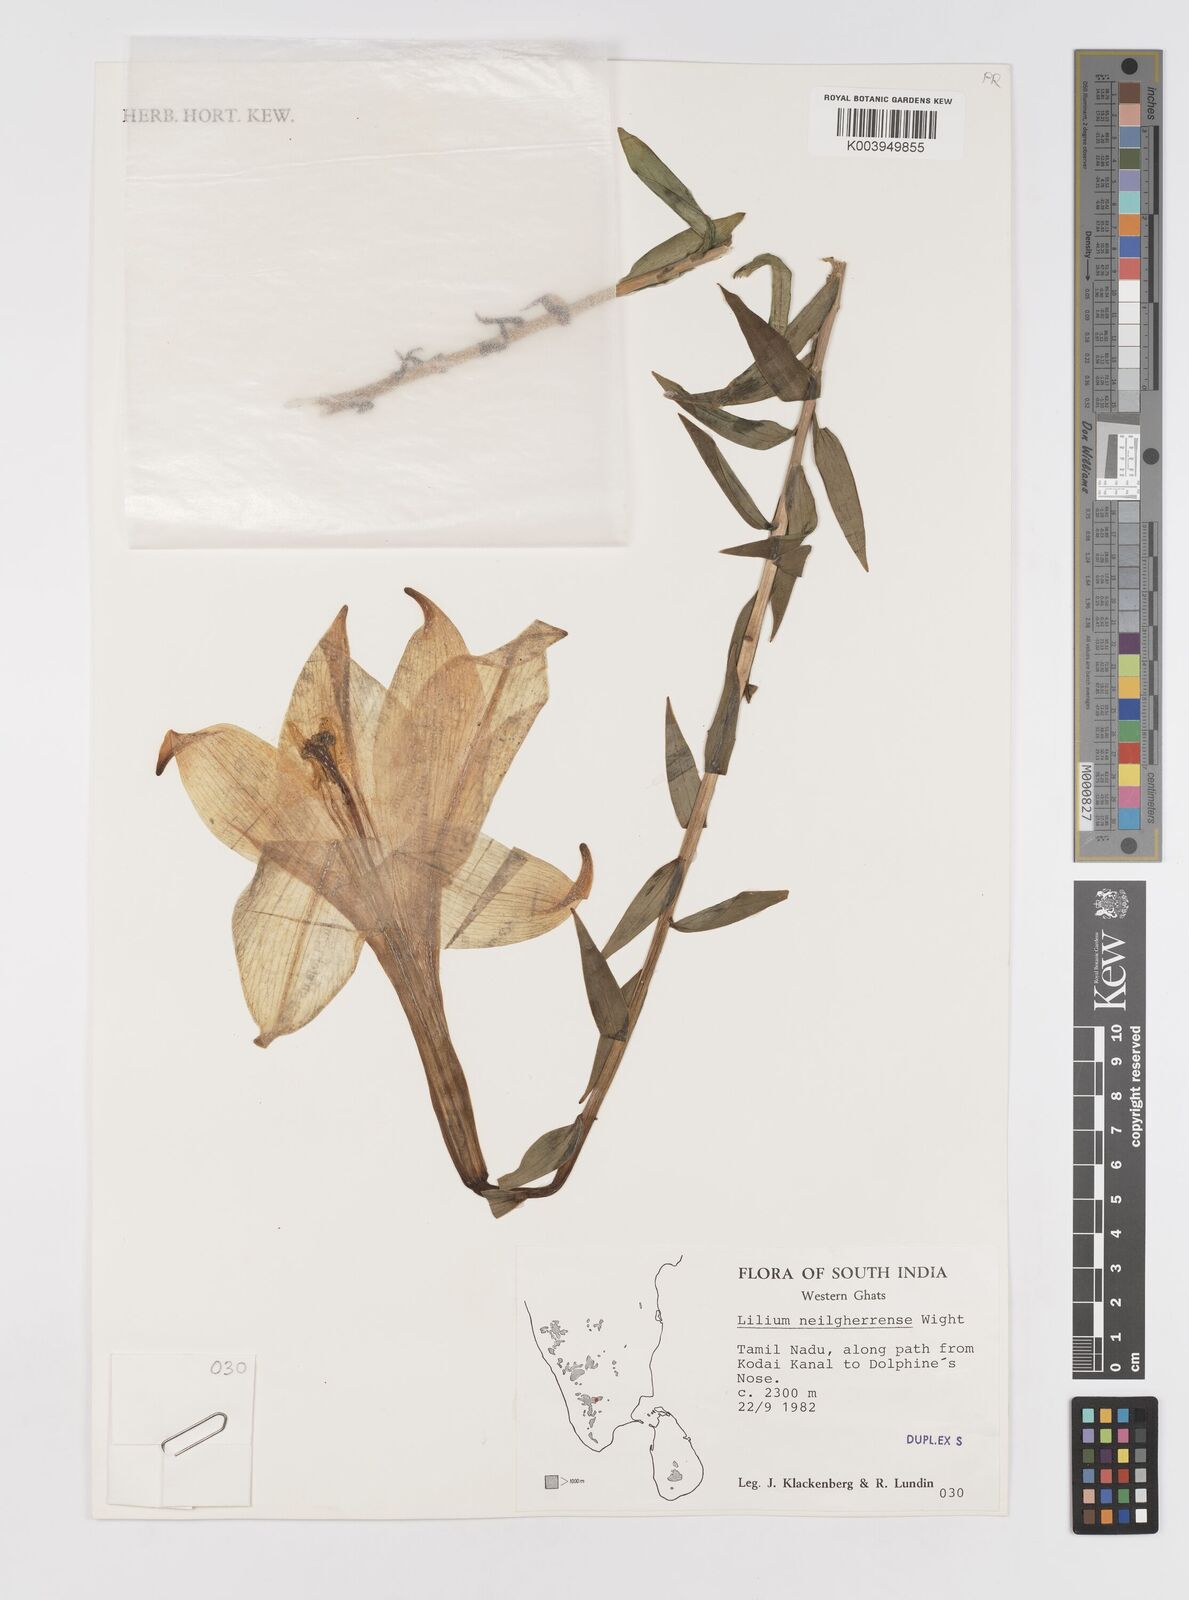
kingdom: Plantae
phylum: Tracheophyta
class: Liliopsida
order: Liliales
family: Liliaceae
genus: Lilium
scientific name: Lilium wallichianum
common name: Wallich's lily
